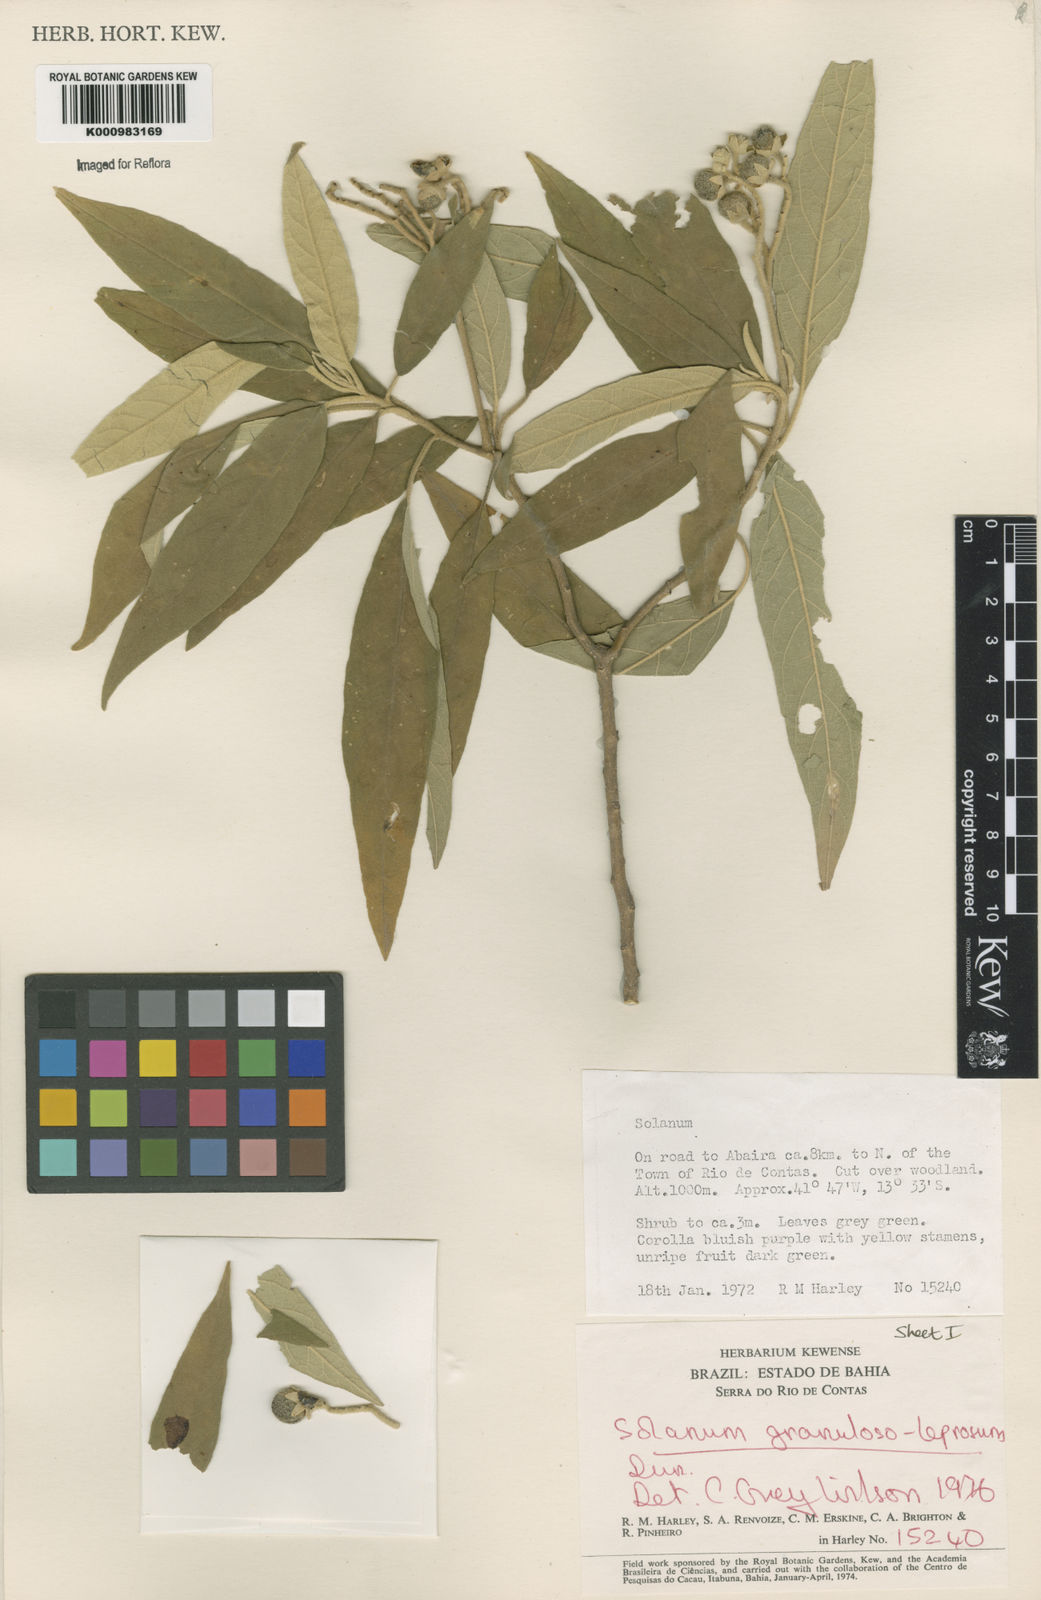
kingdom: Plantae
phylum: Tracheophyta
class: Magnoliopsida
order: Solanales
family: Solanaceae
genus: Solanum
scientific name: Solanum granulosoleprosum
